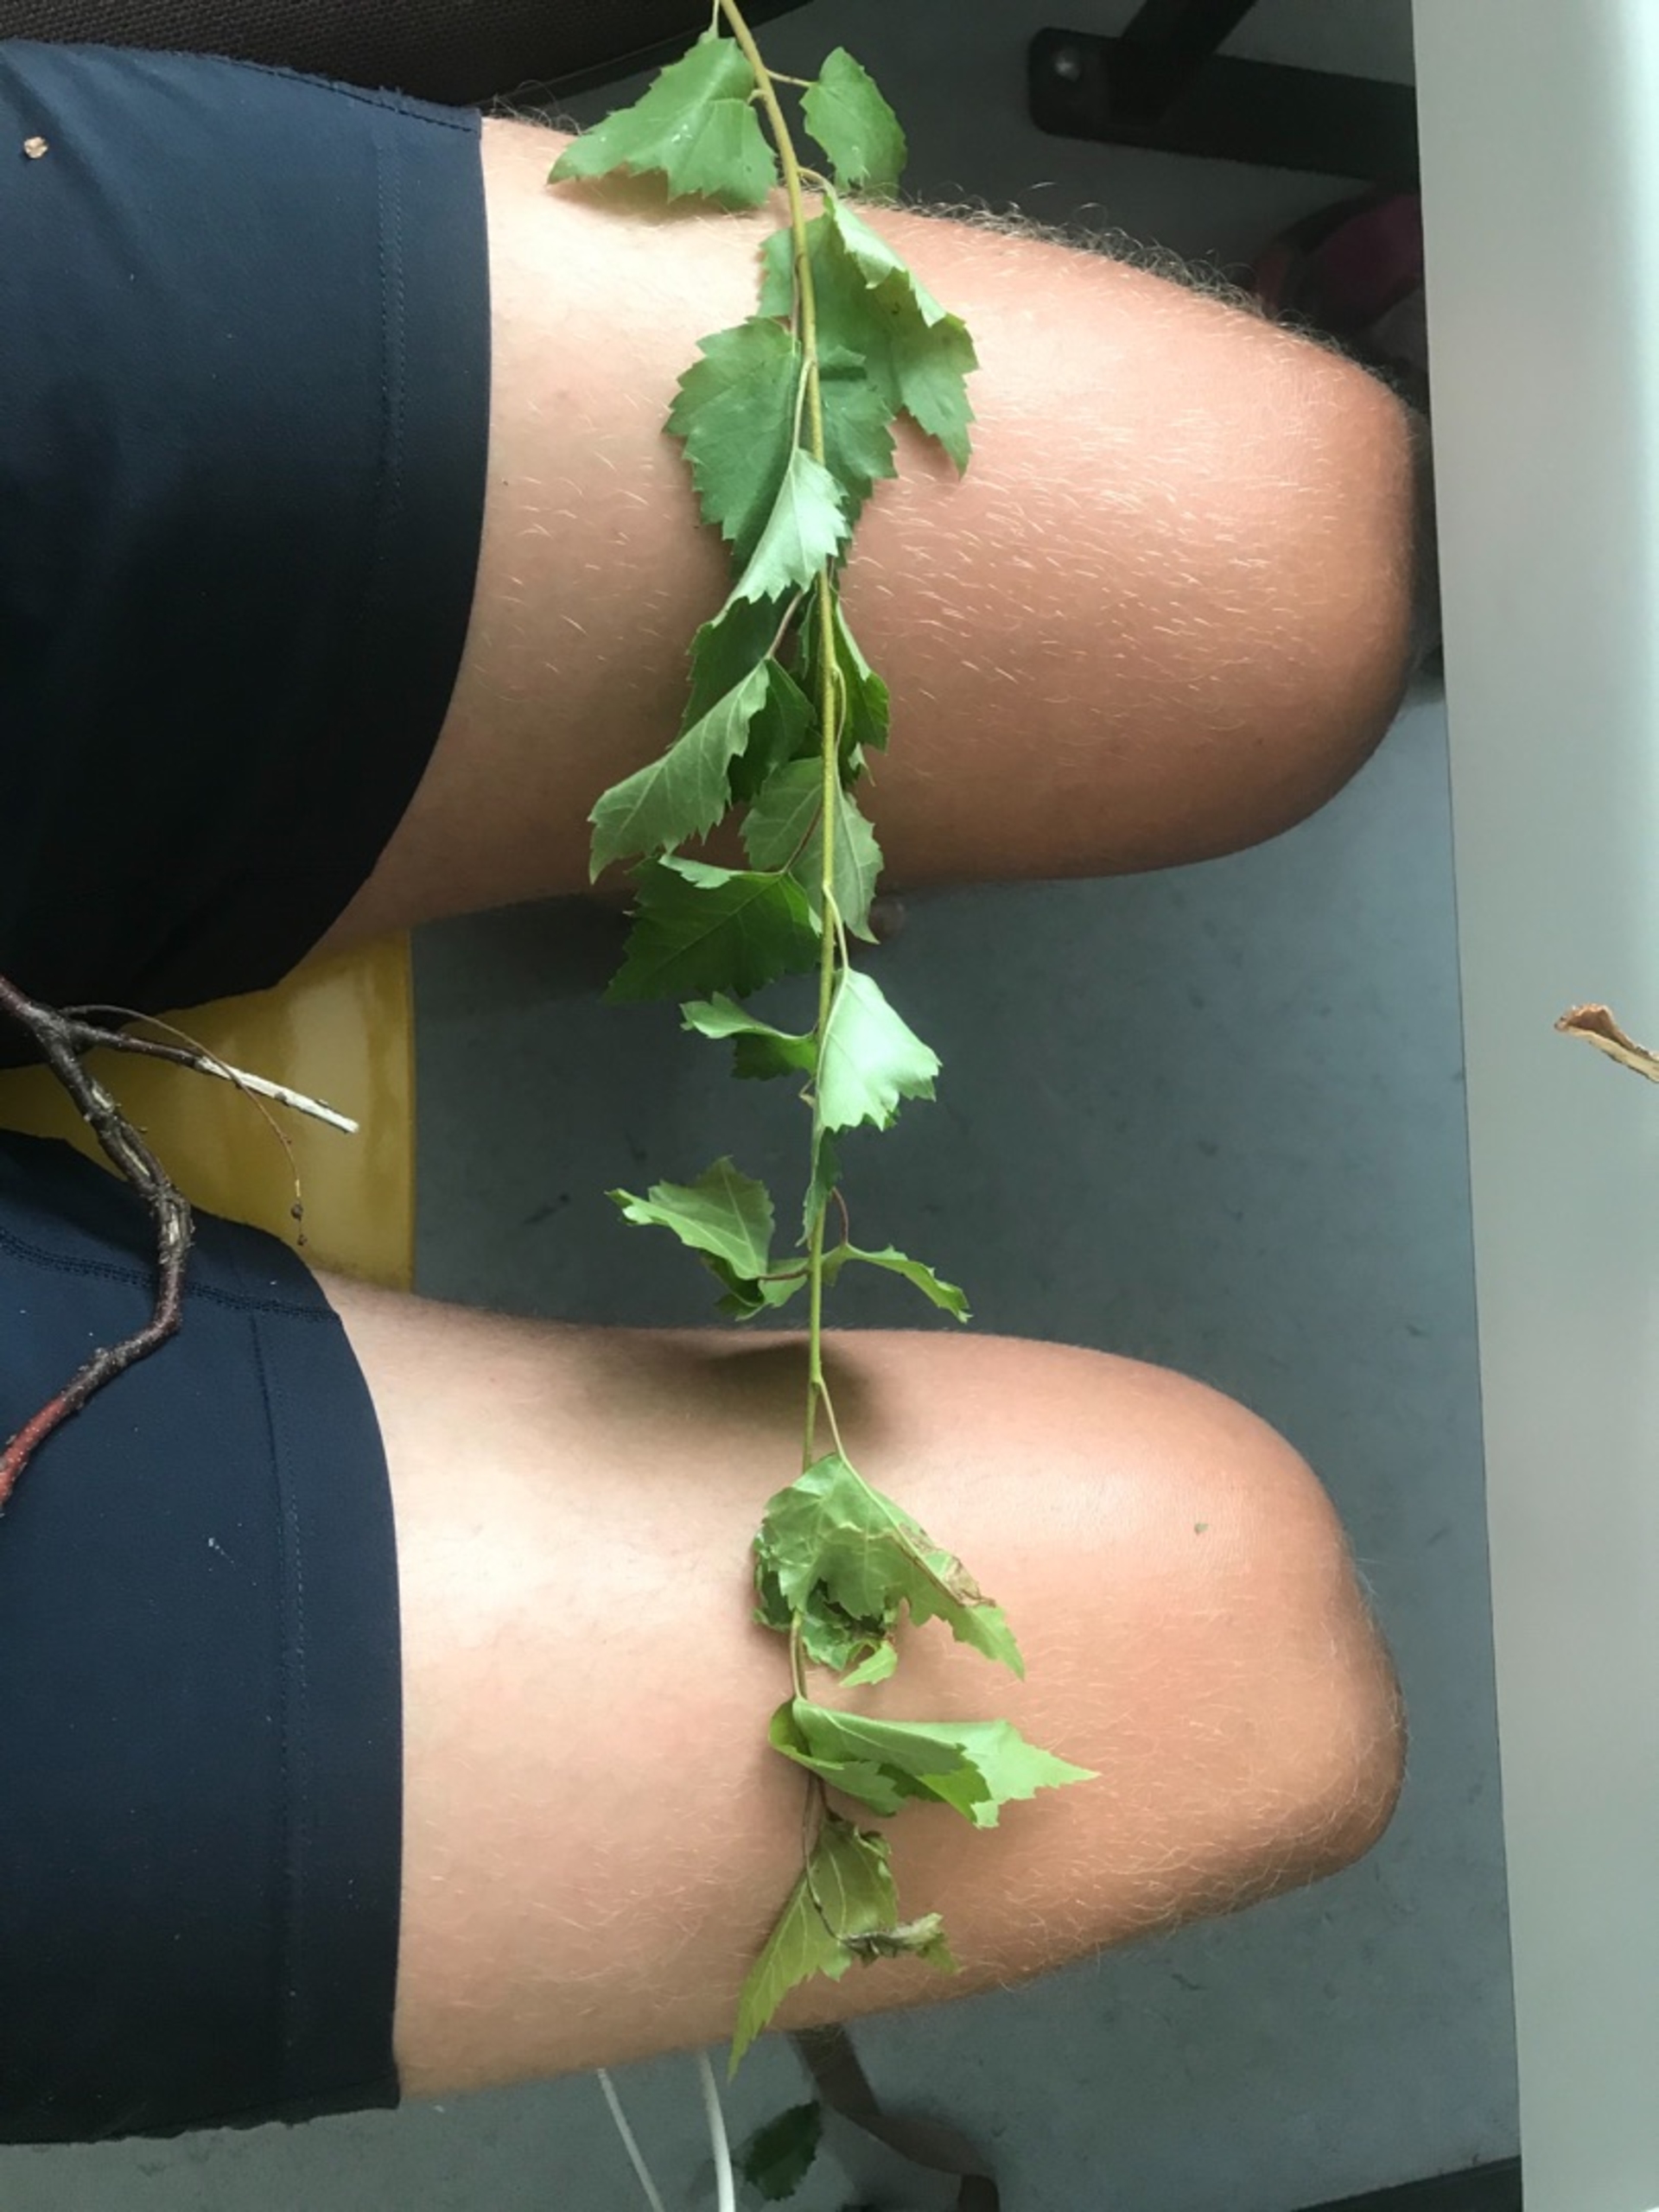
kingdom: Plantae
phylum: Tracheophyta
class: Magnoliopsida
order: Fagales
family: Betulaceae
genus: Betula
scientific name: Betula
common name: Birkeslægten
